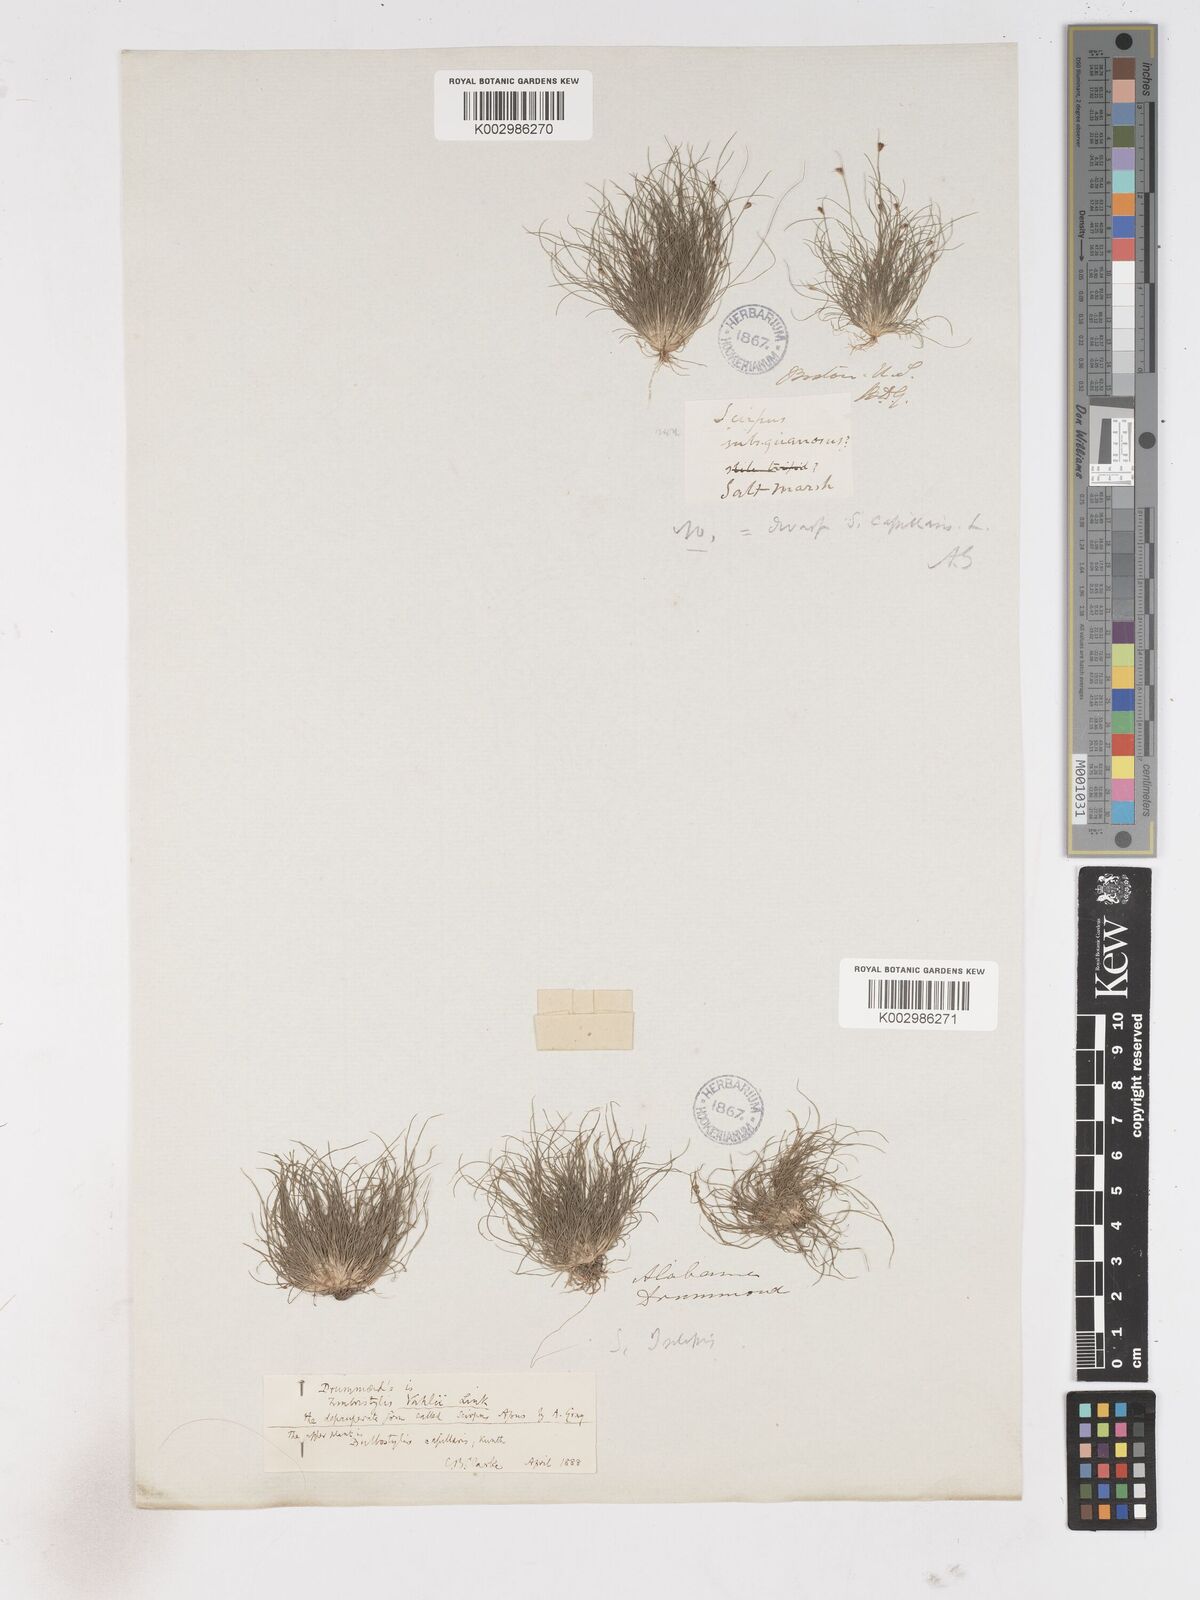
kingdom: Plantae
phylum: Tracheophyta
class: Liliopsida
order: Poales
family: Cyperaceae
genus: Fimbristylis
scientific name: Fimbristylis vahlii
